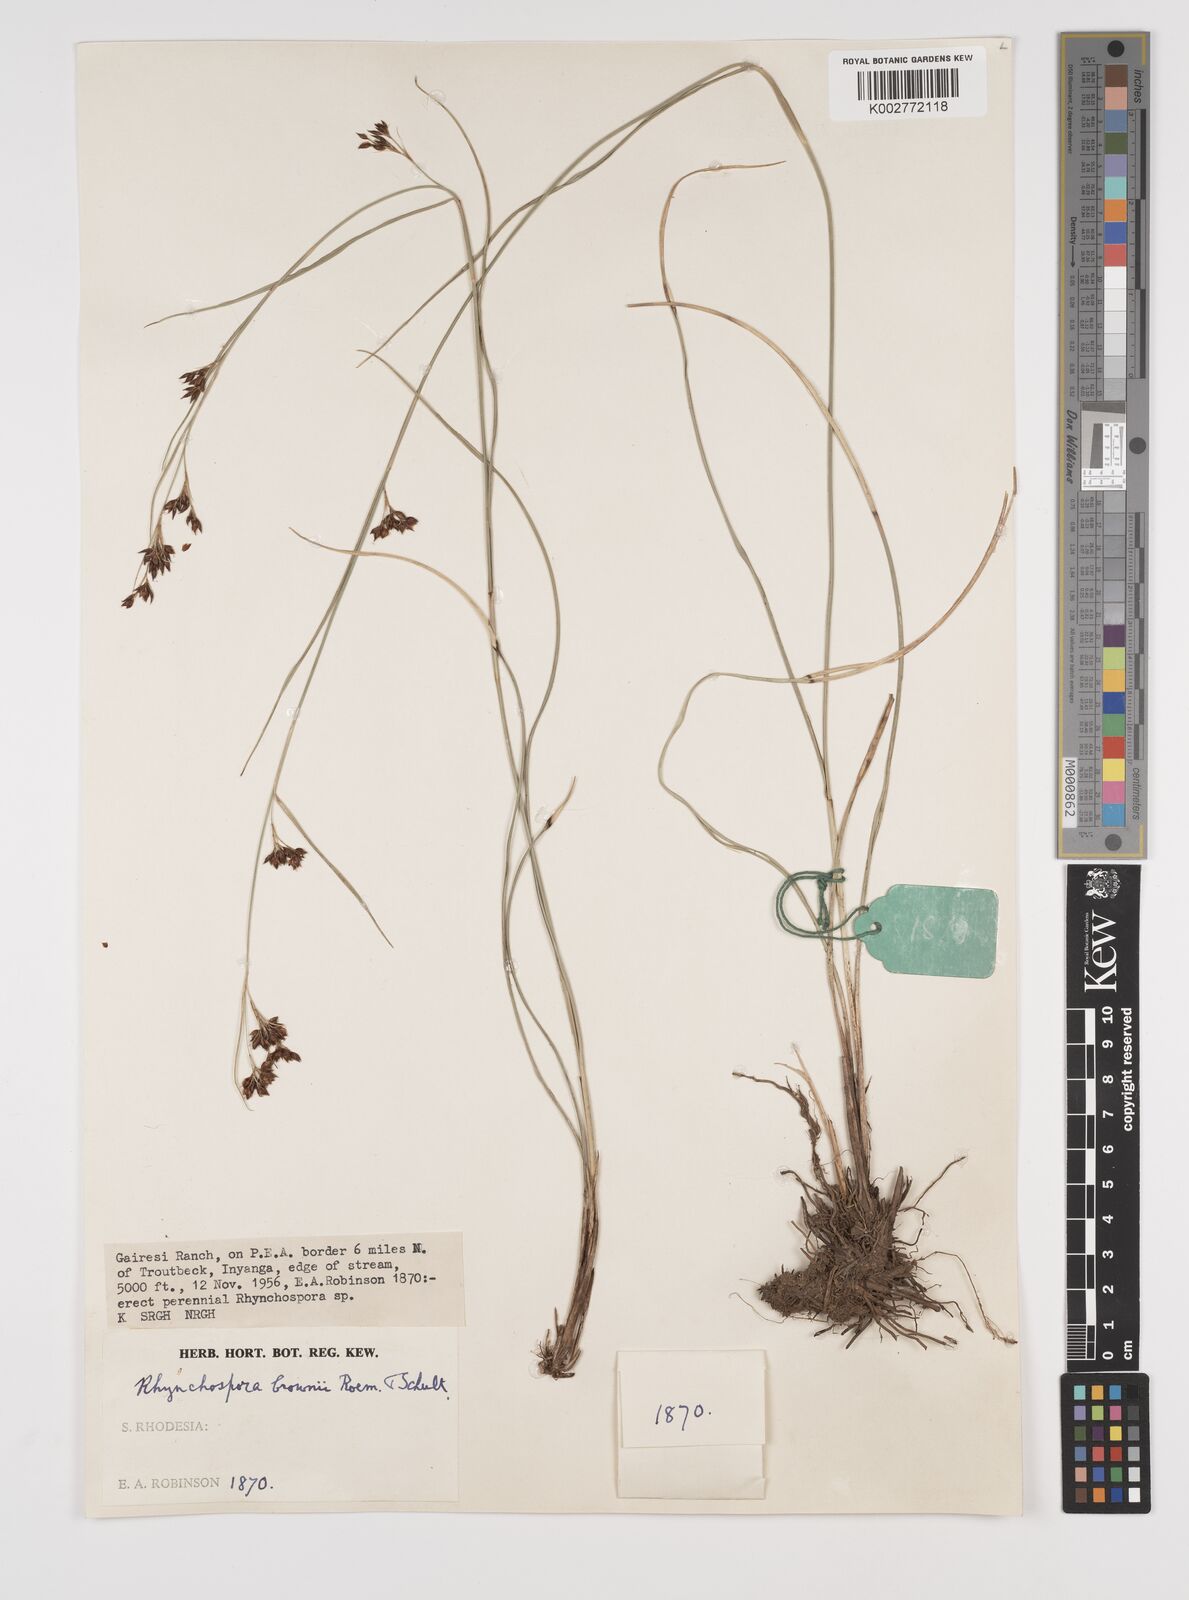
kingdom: Plantae
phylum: Tracheophyta
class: Liliopsida
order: Poales
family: Cyperaceae
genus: Rhynchospora
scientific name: Rhynchospora rugosa
